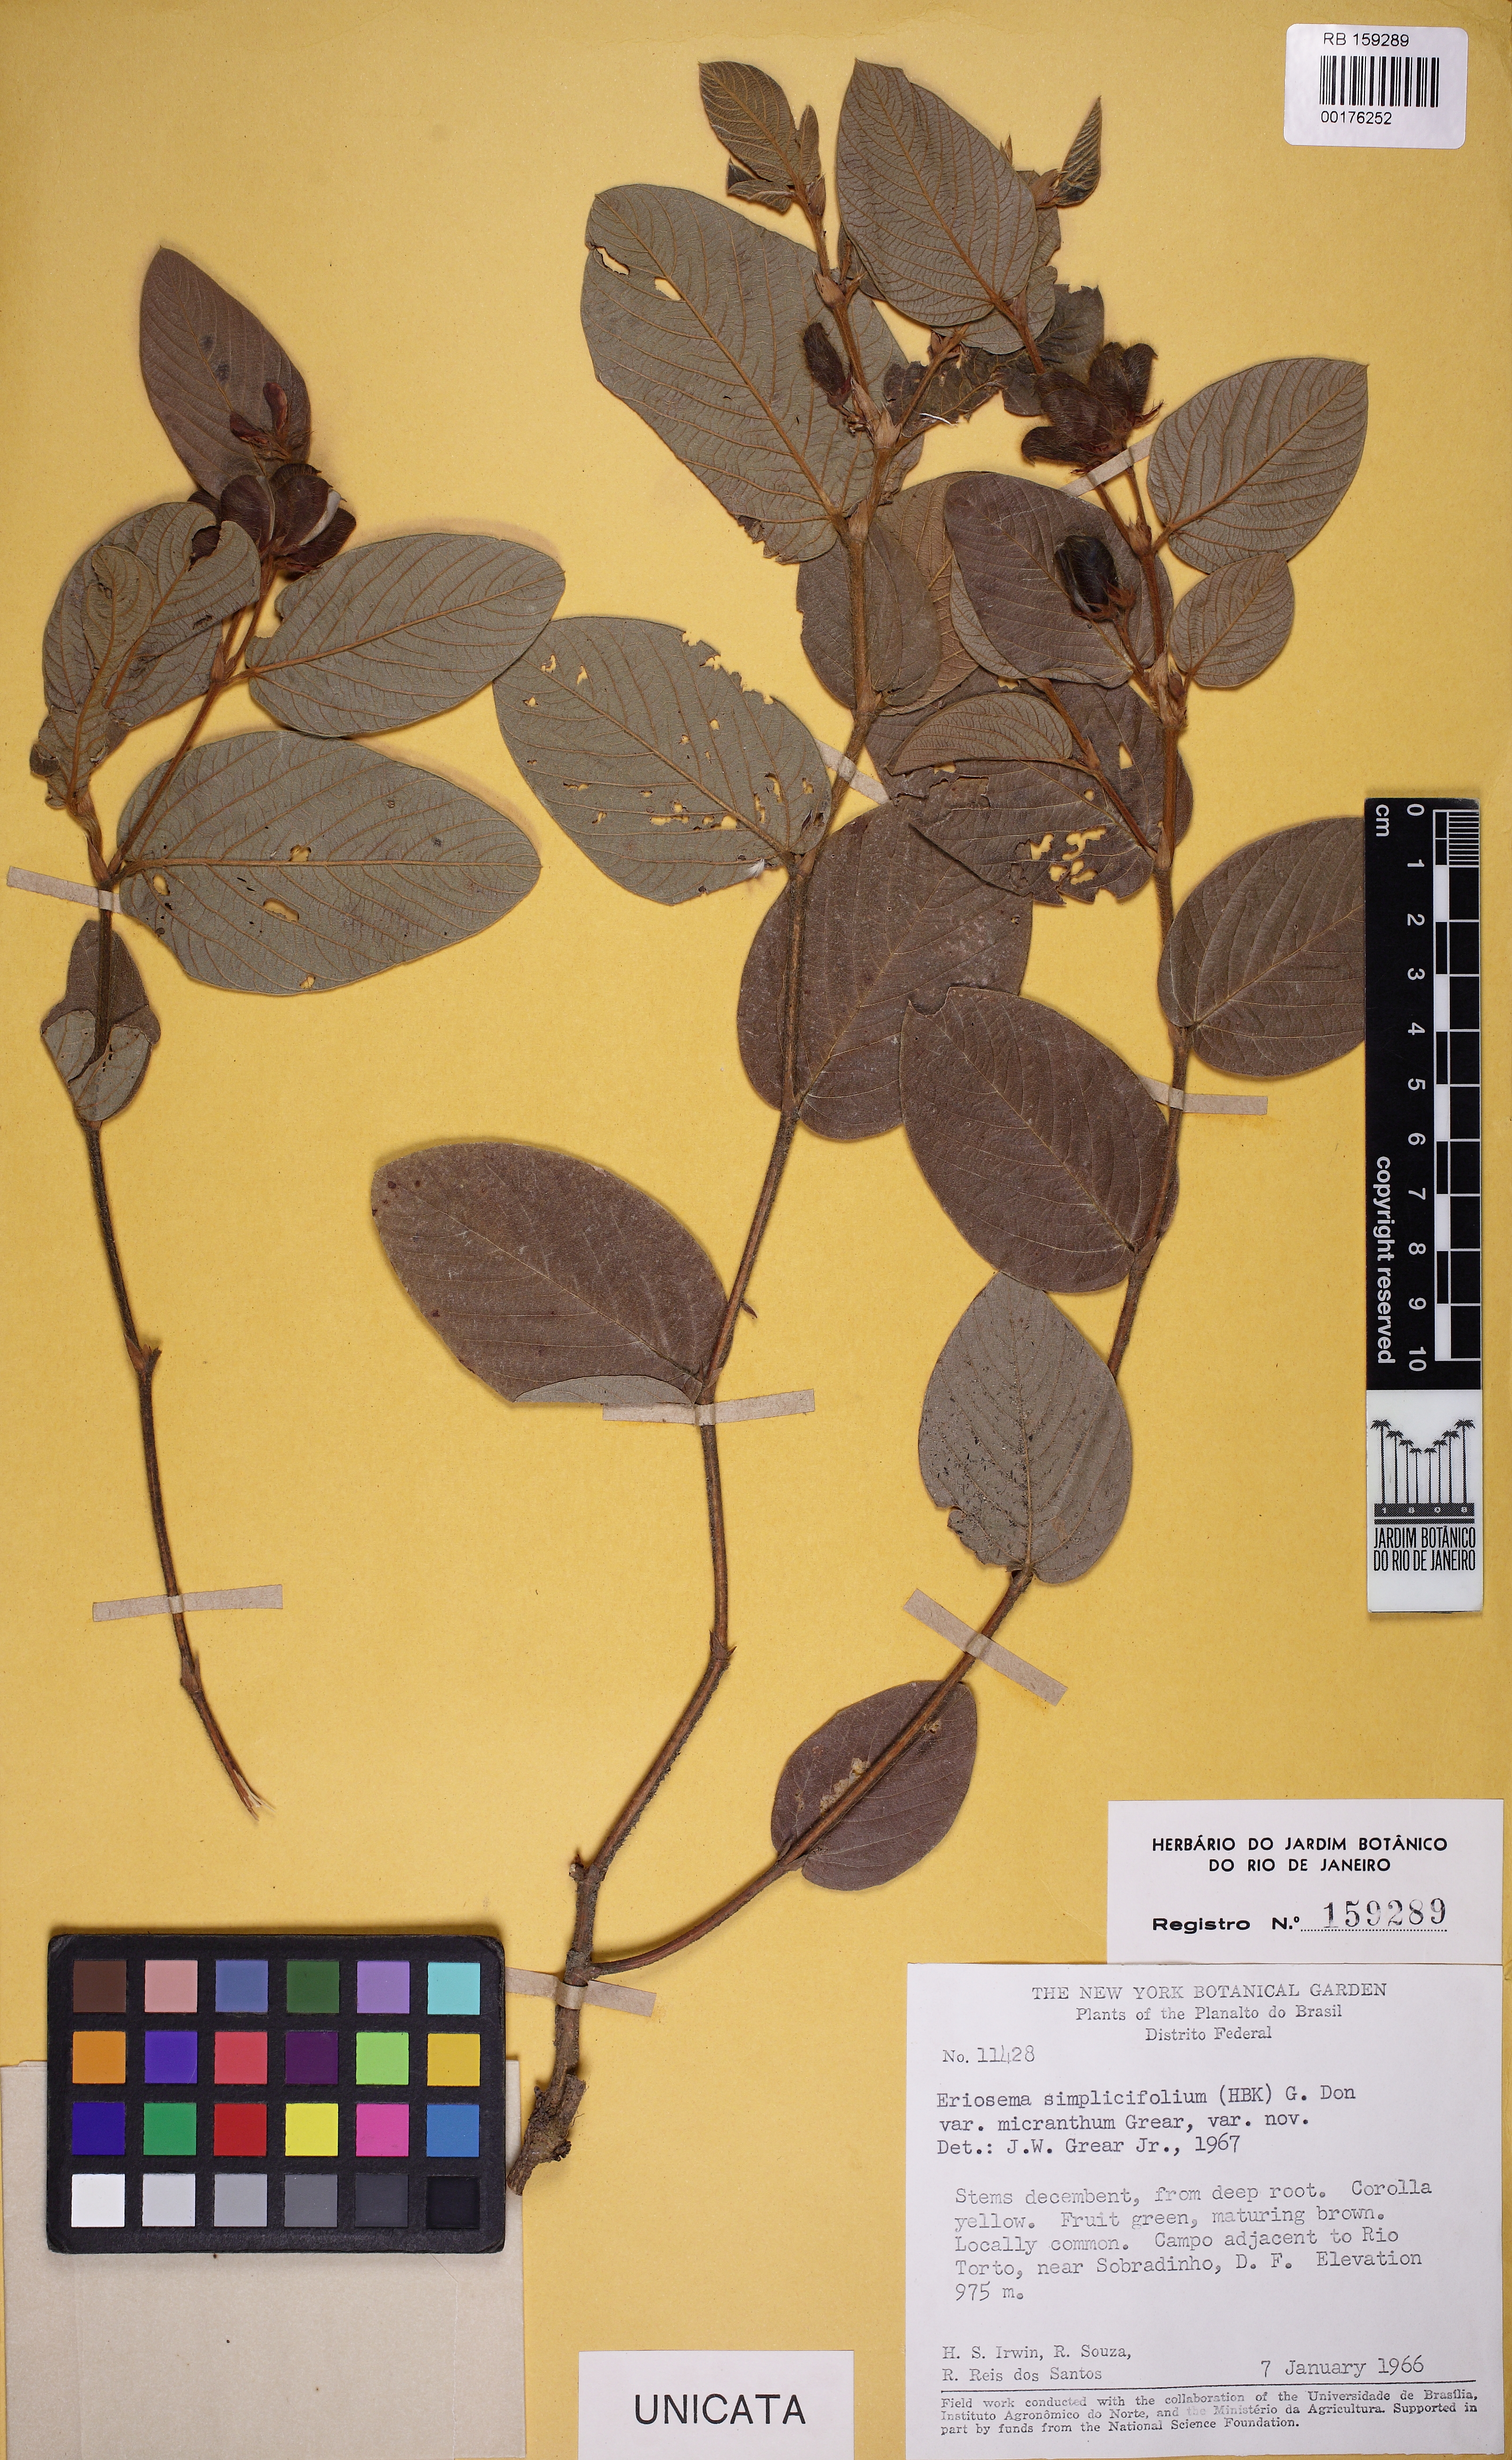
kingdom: Plantae
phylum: Tracheophyta
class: Magnoliopsida
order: Fabales
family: Fabaceae
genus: Eriosema
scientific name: Eriosema simplicifolium
